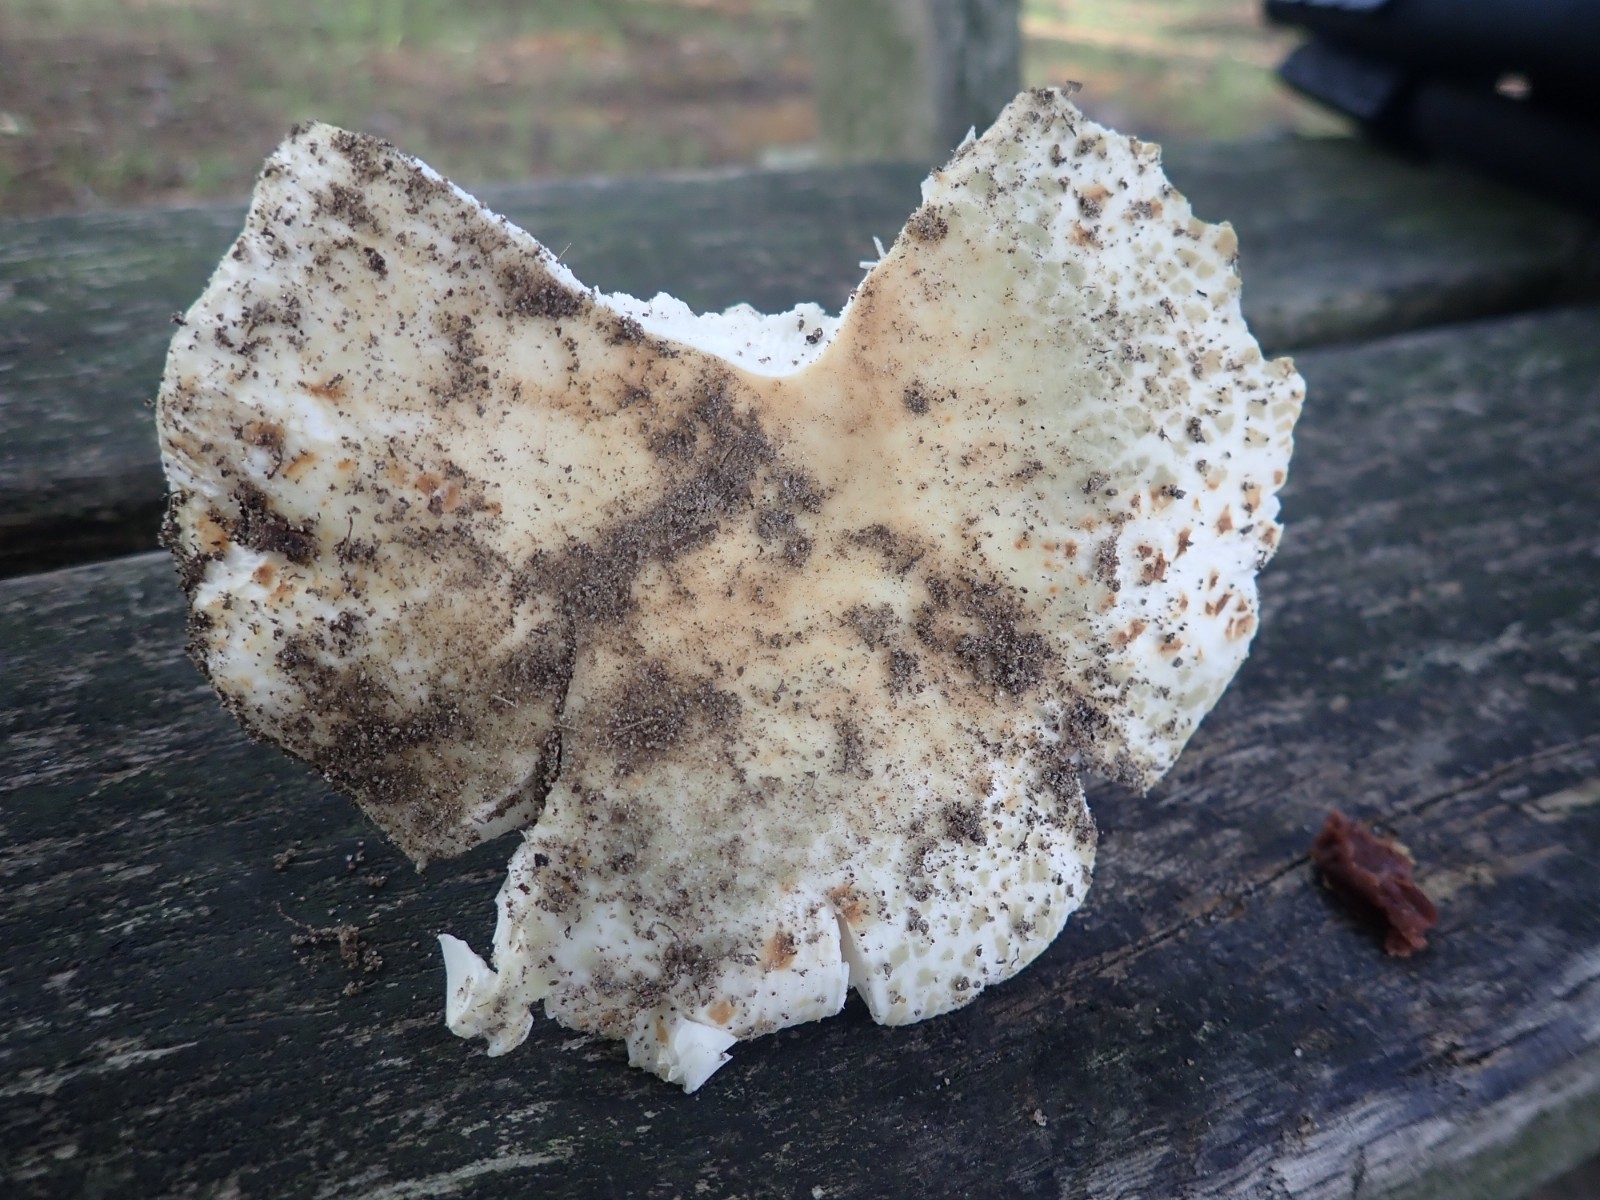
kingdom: Fungi
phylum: Basidiomycota
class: Agaricomycetes
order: Russulales
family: Russulaceae
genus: Russula
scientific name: Russula virescens
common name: spanskgrøn skørhat
